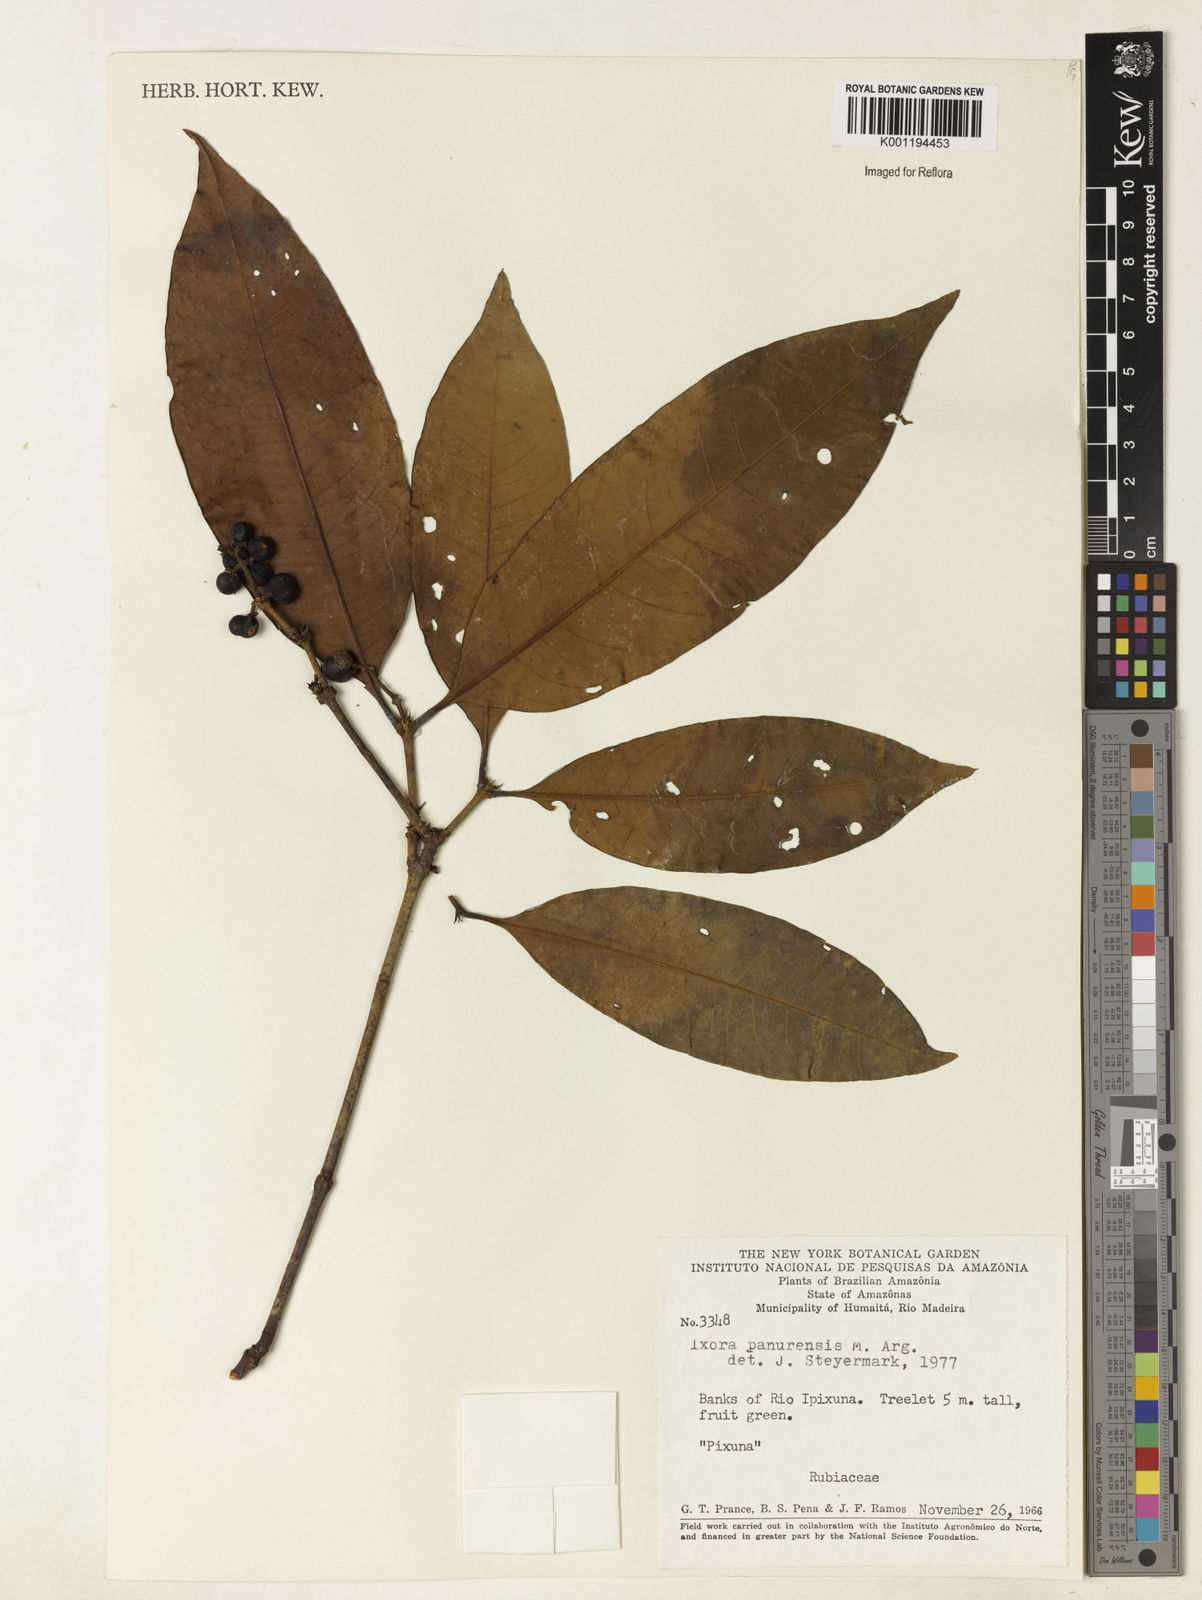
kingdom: Plantae
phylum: Tracheophyta
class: Magnoliopsida
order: Gentianales
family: Rubiaceae
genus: Ixora
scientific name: Ixora
